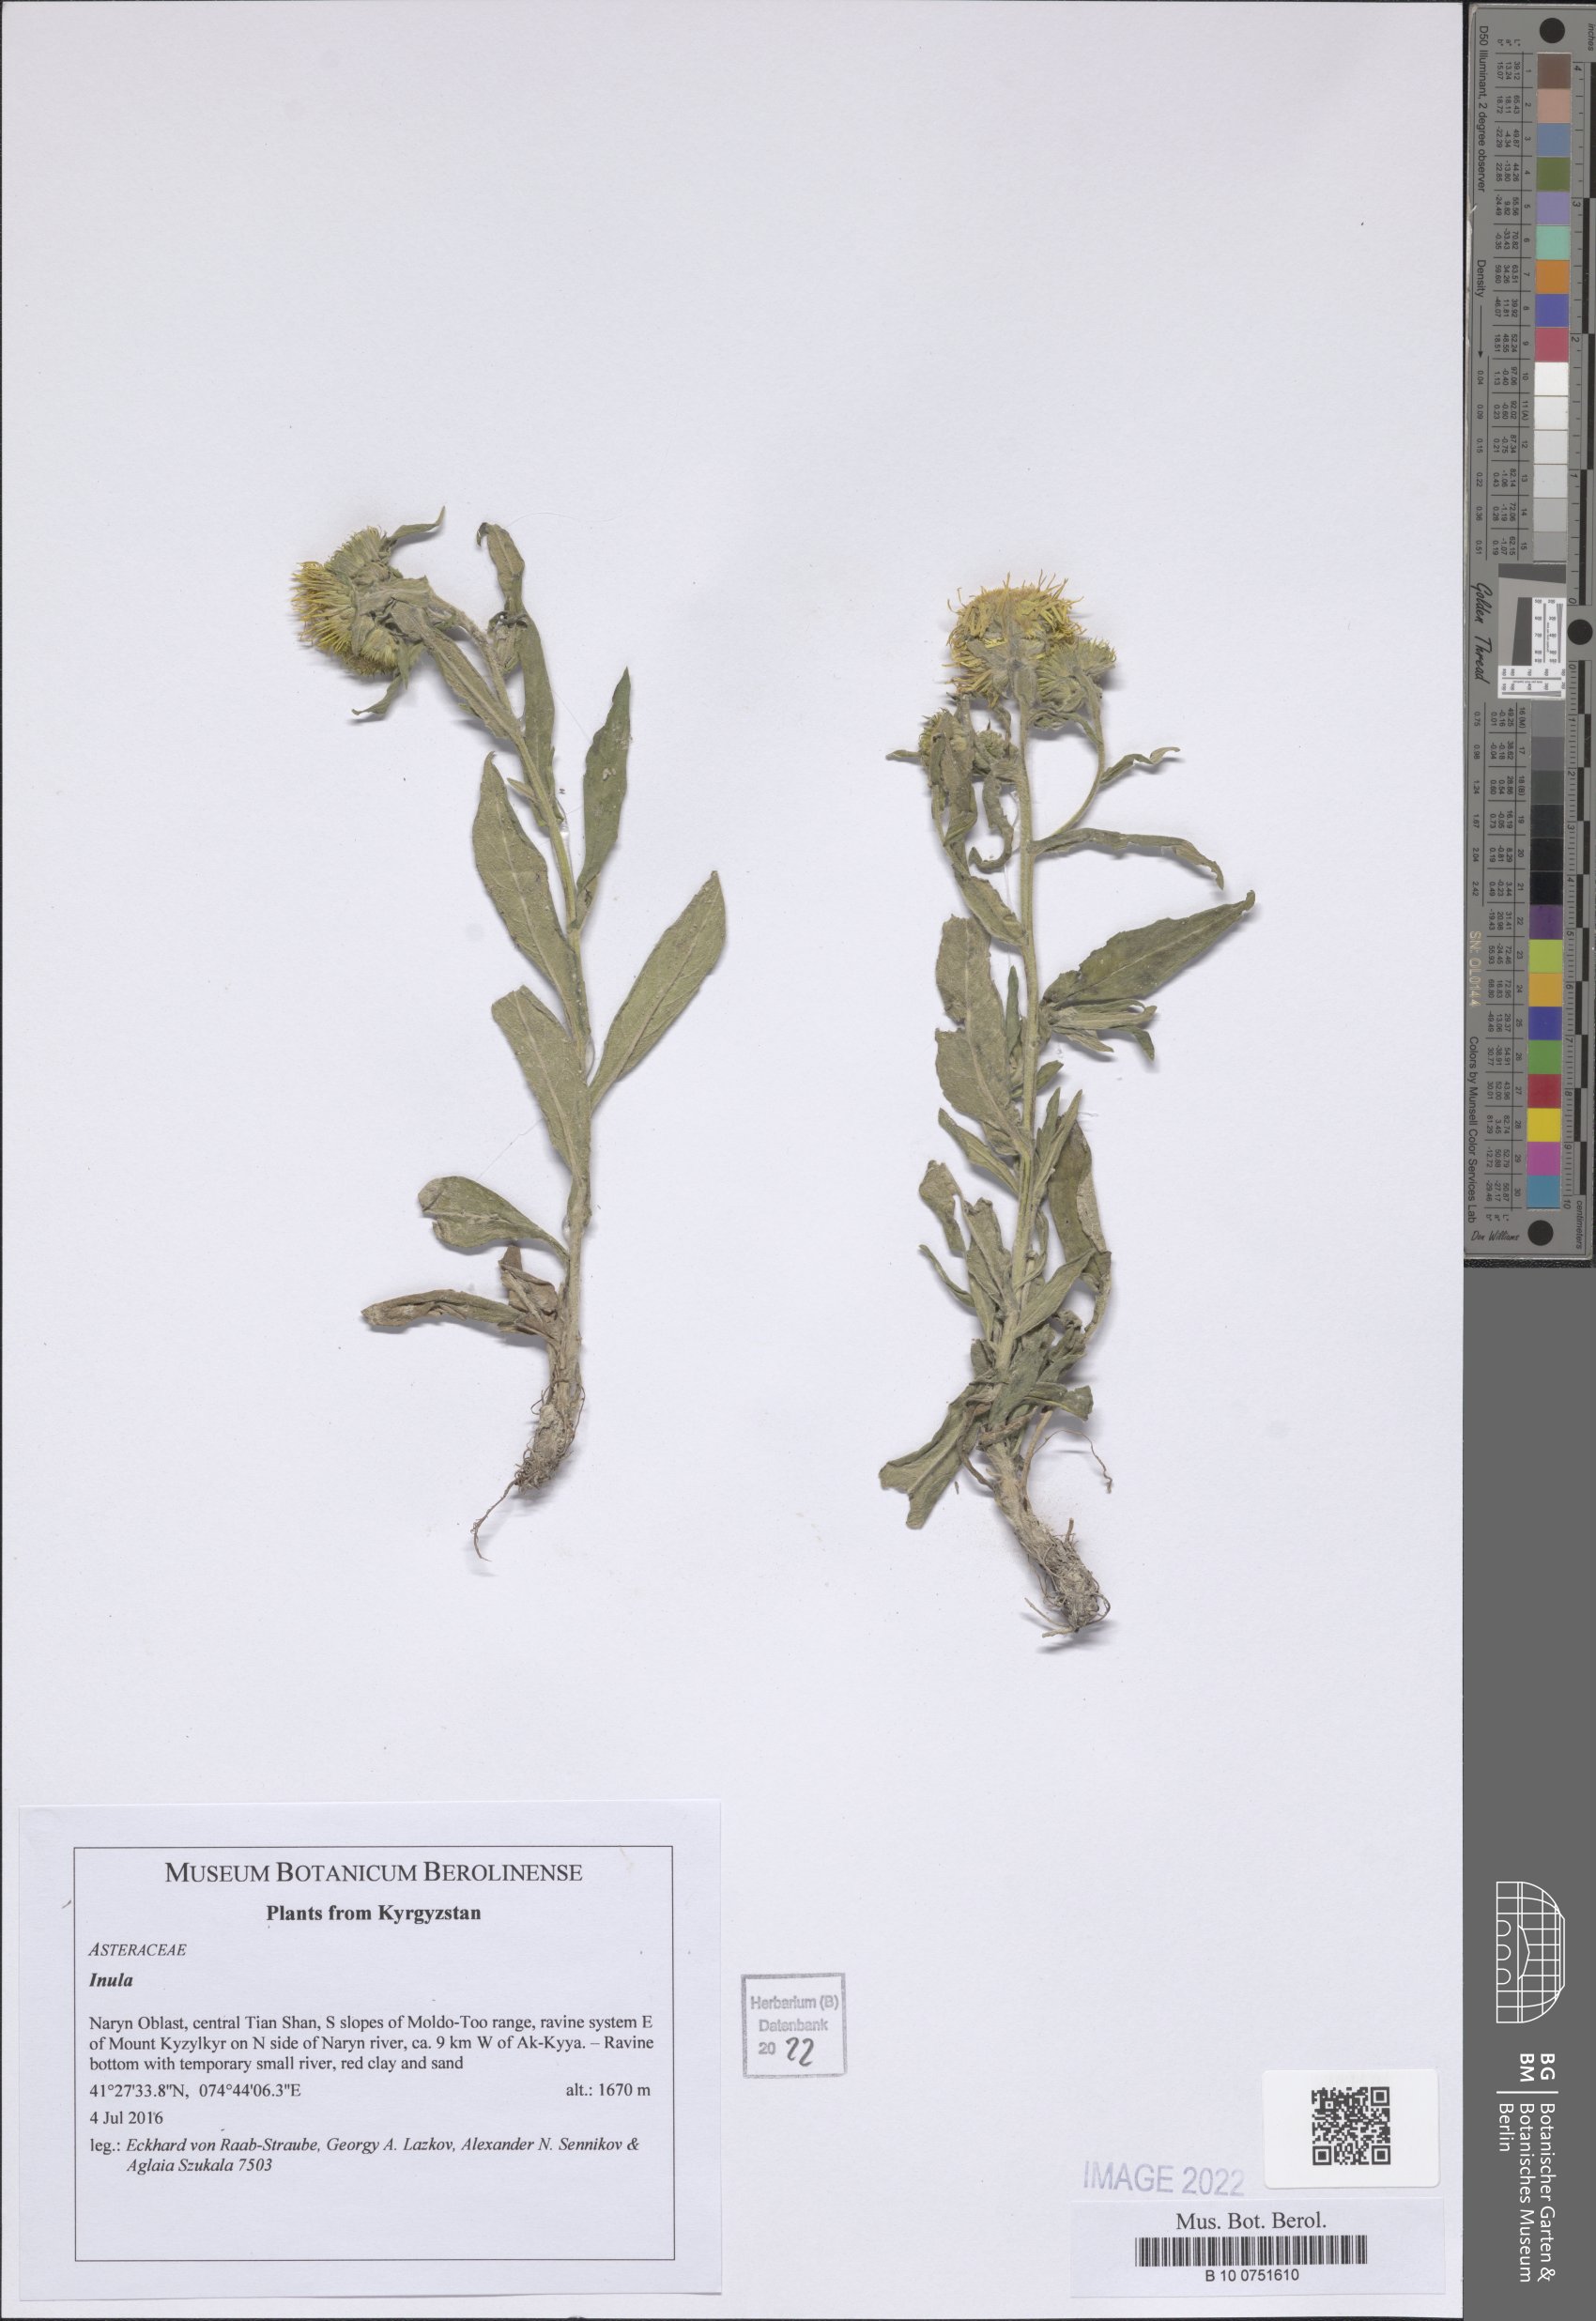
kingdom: Plantae
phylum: Tracheophyta
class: Magnoliopsida
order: Asterales
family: Asteraceae
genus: Inula
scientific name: Inula
